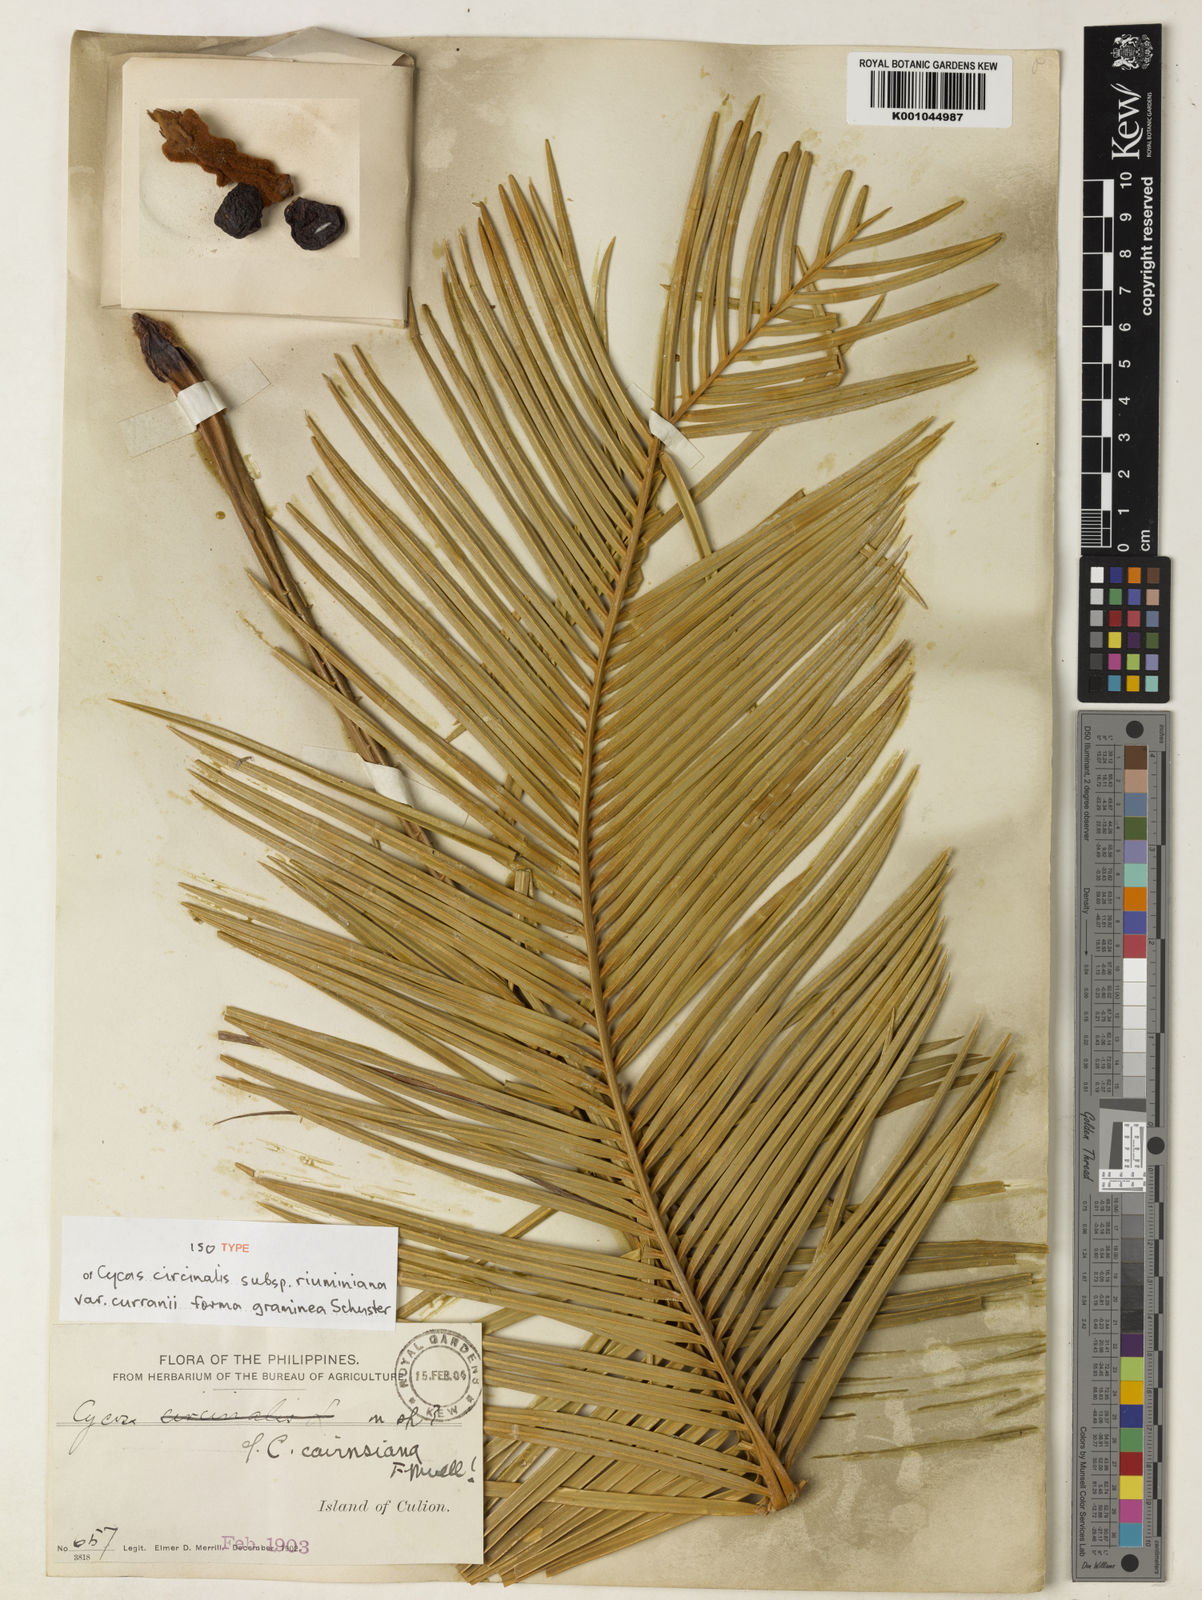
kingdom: Plantae
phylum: Tracheophyta
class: Cycadopsida
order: Cycadales
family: Cycadaceae
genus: Cycas
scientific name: Cycas wadei
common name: Wade’s pitogo
